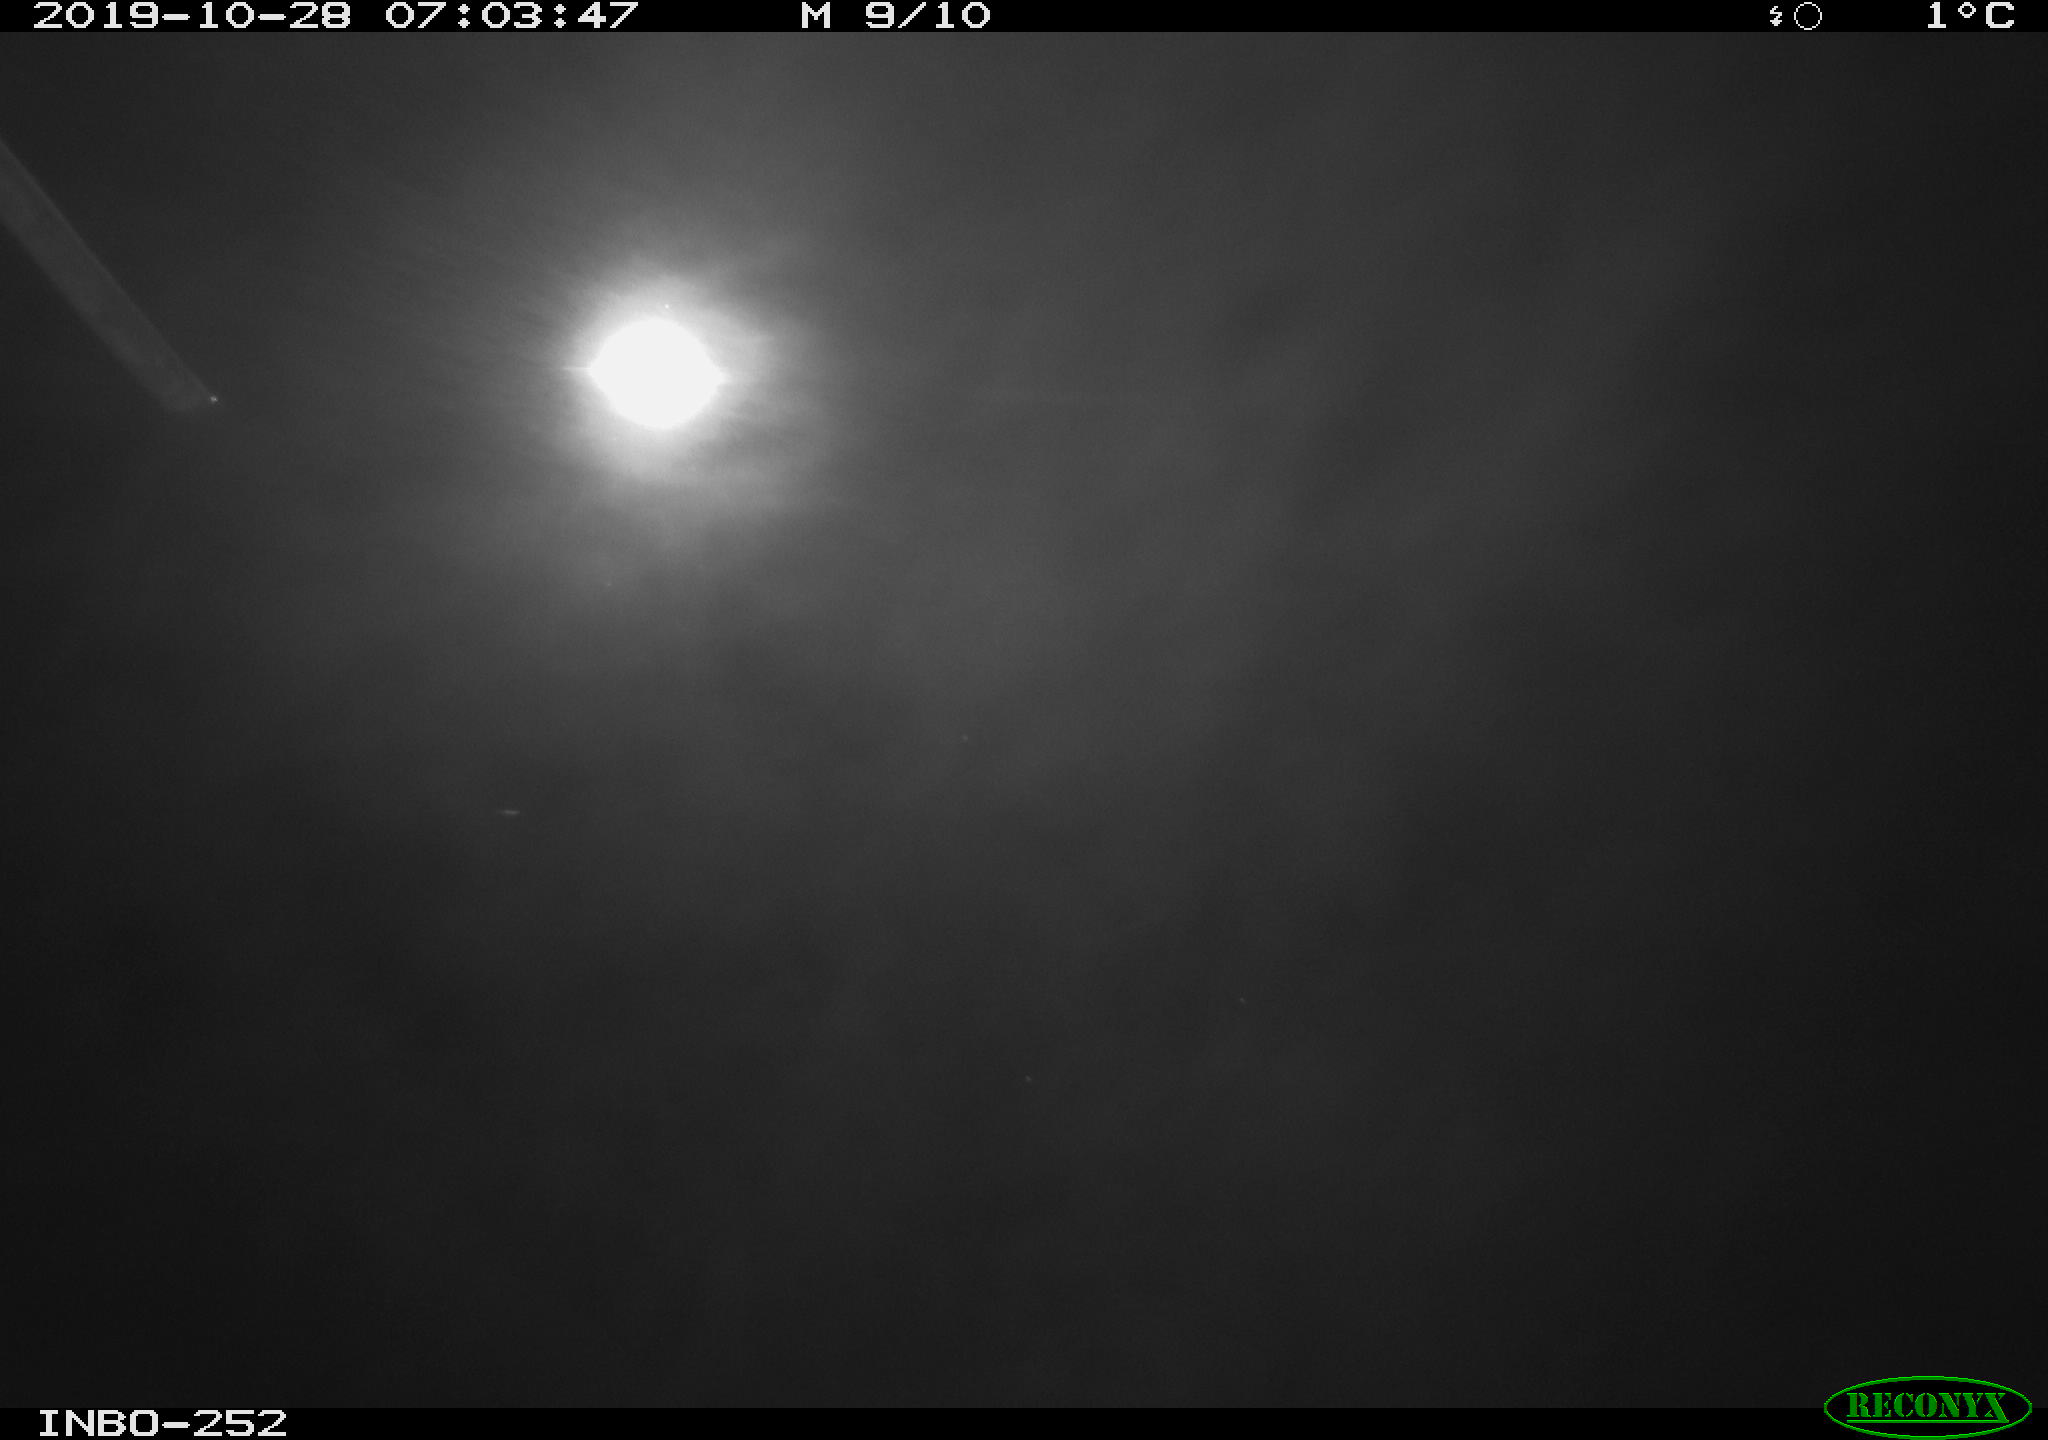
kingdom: Animalia
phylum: Chordata
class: Aves
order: Anseriformes
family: Anatidae
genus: Anas
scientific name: Anas platyrhynchos
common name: Mallard
